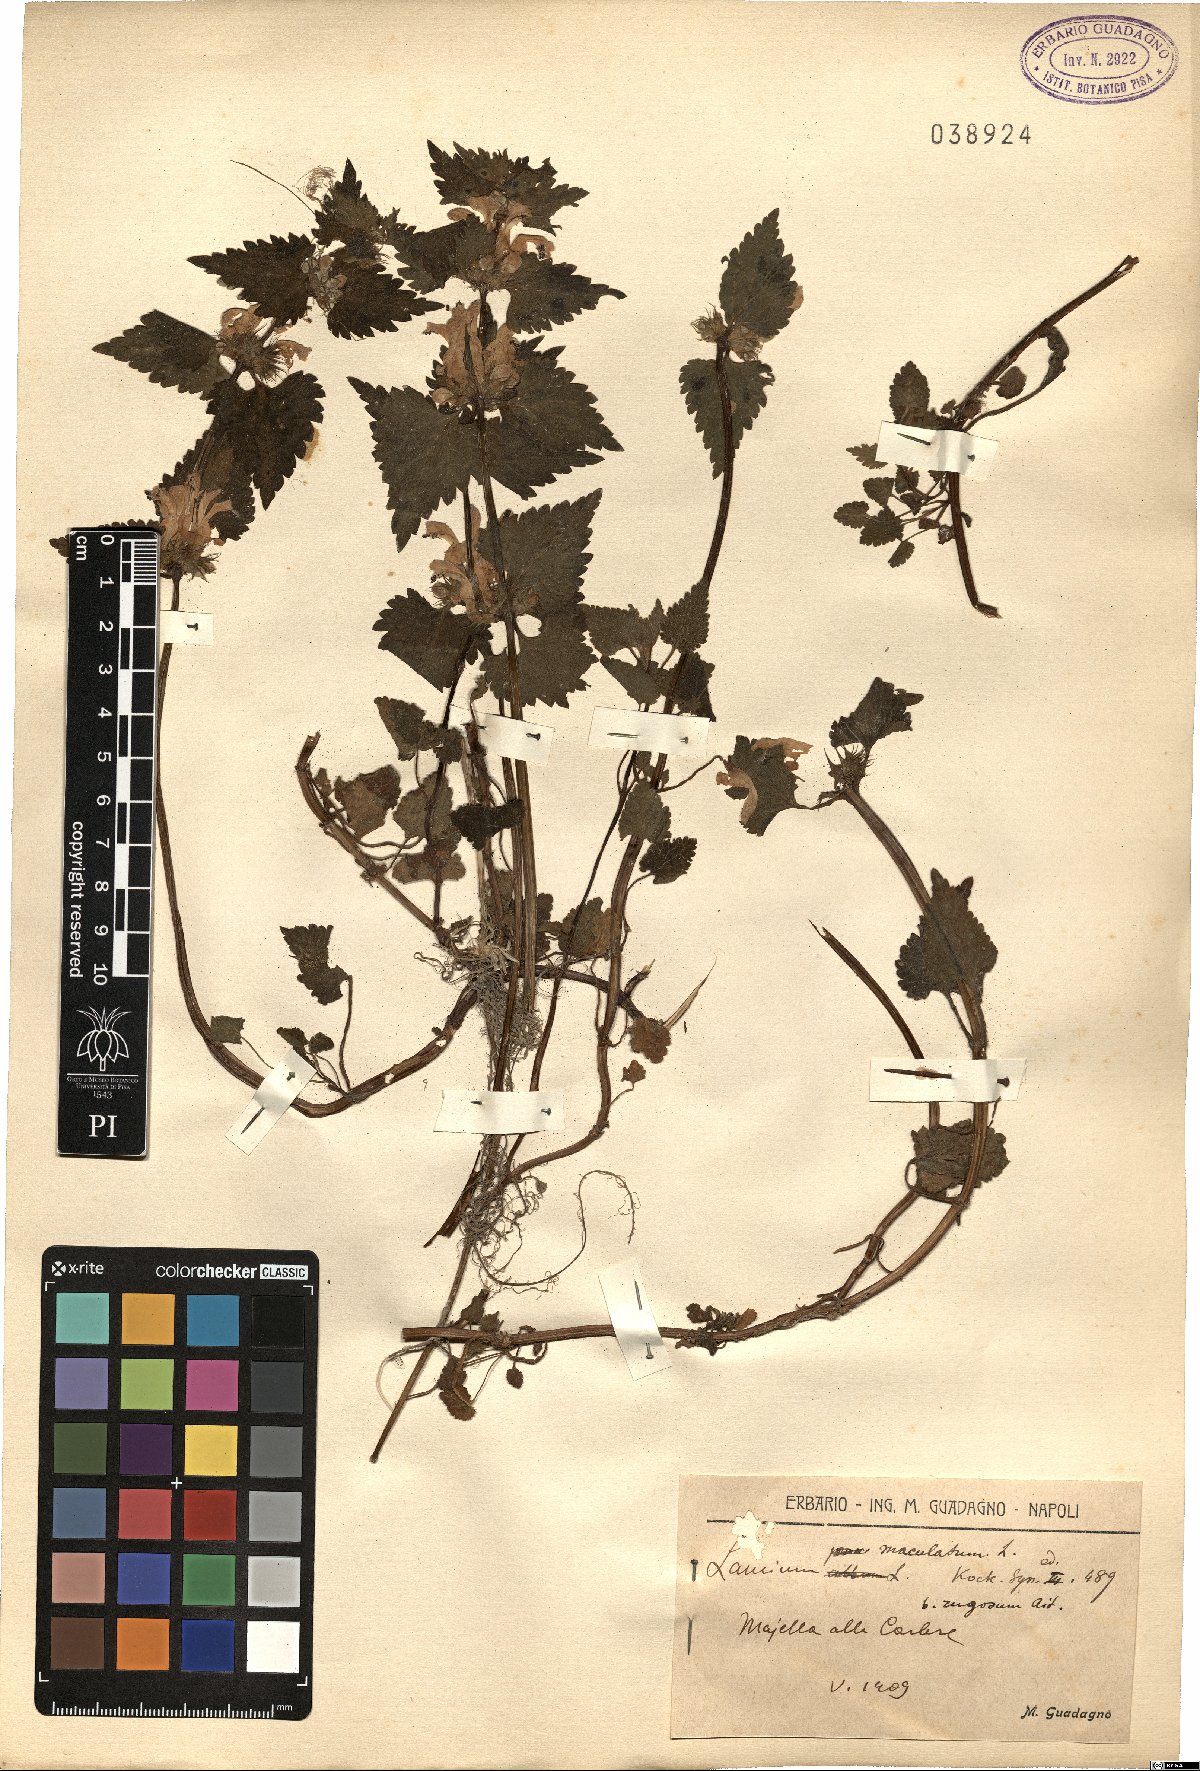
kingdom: Plantae
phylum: Tracheophyta
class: Magnoliopsida
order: Lamiales
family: Lamiaceae
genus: Lamium
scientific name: Lamium maculatum
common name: Spotted dead-nettle
